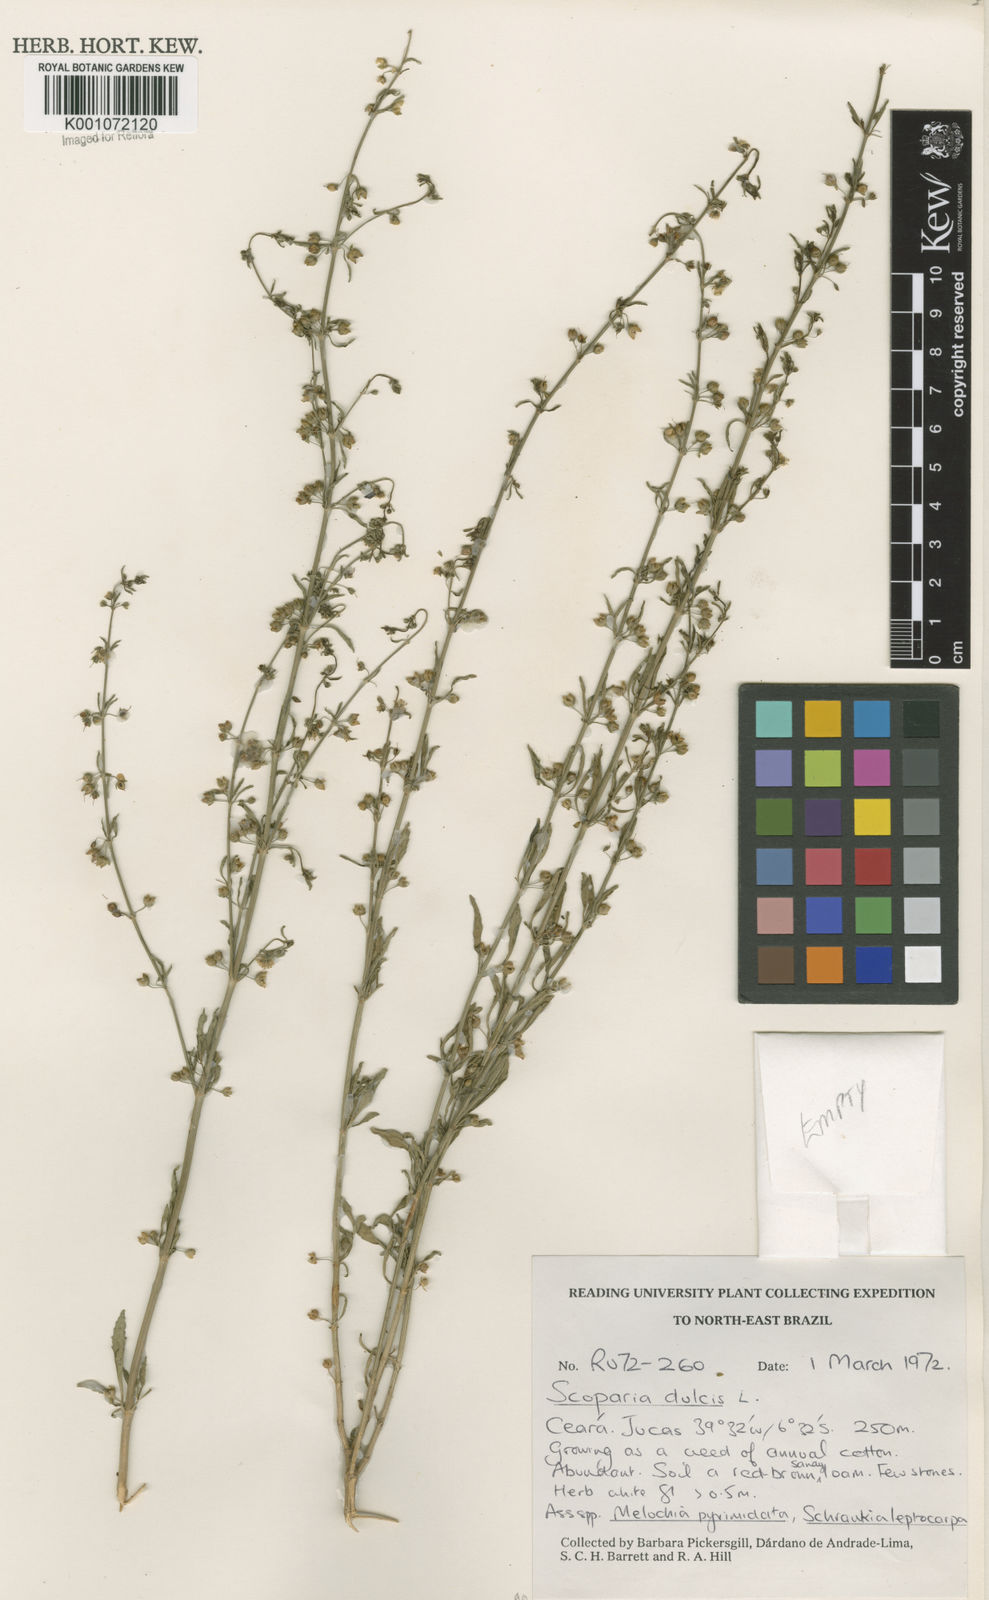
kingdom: Plantae
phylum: Tracheophyta
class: Magnoliopsida
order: Lamiales
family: Plantaginaceae
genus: Scoparia
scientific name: Scoparia dulcis
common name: Scoparia-weed
